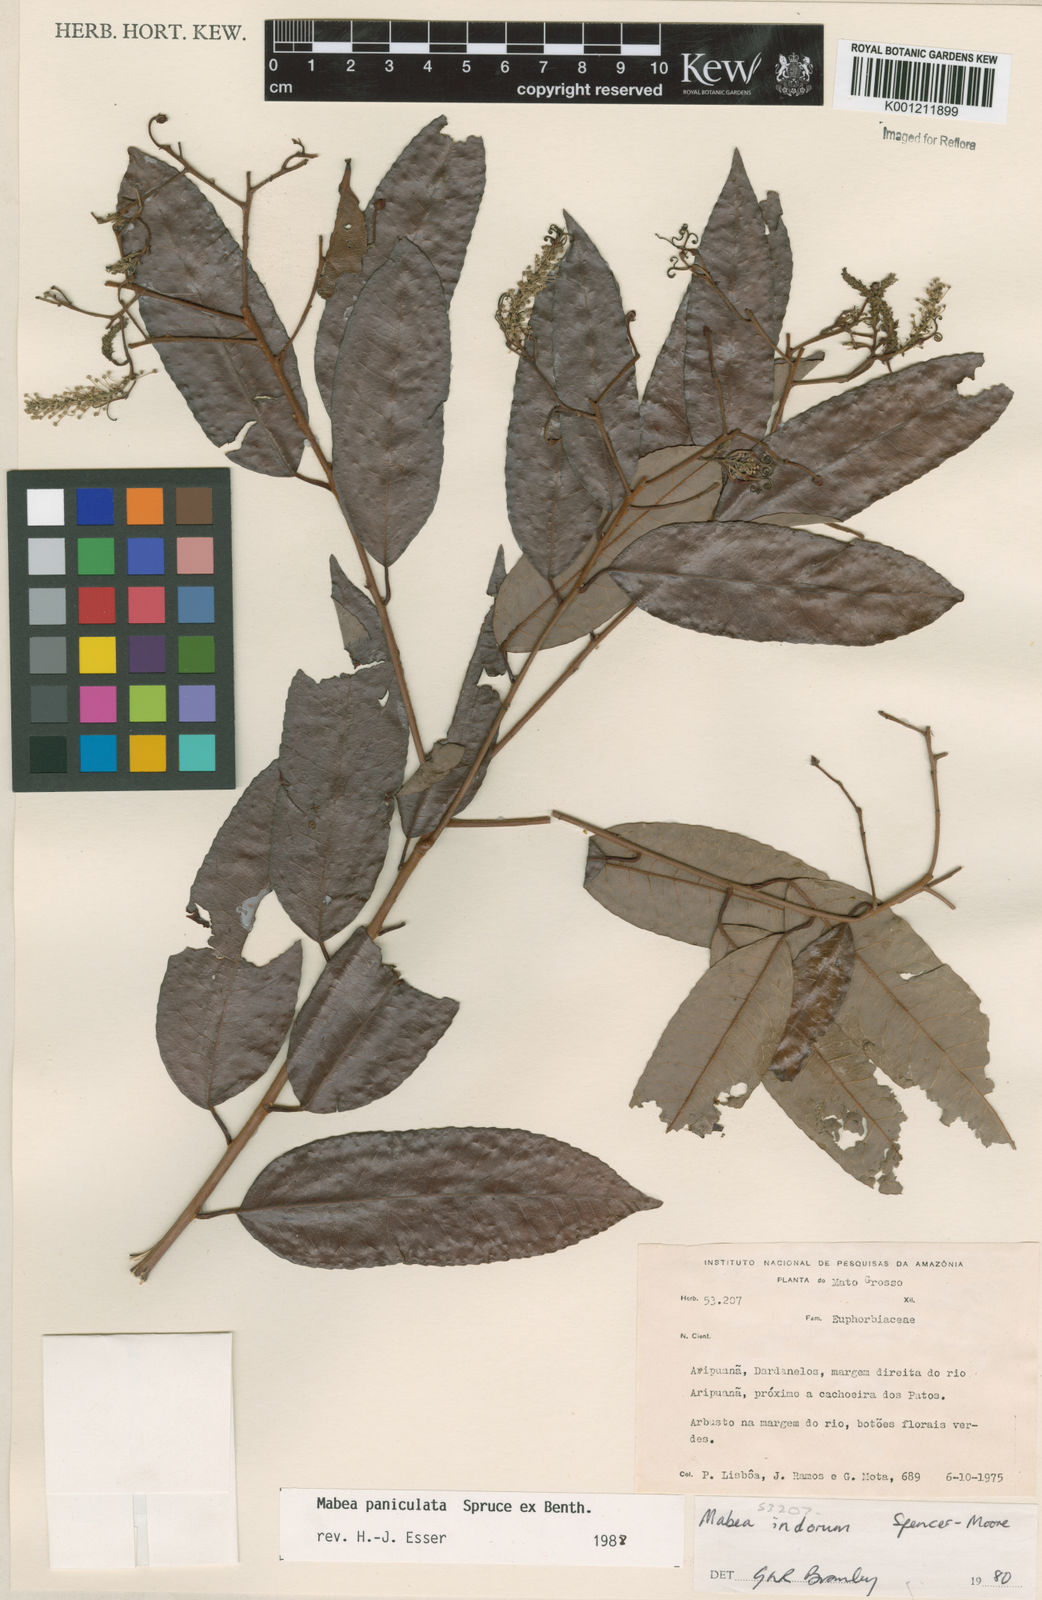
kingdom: Plantae
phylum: Tracheophyta
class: Magnoliopsida
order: Malpighiales
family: Euphorbiaceae
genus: Mabea
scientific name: Mabea paniculata
